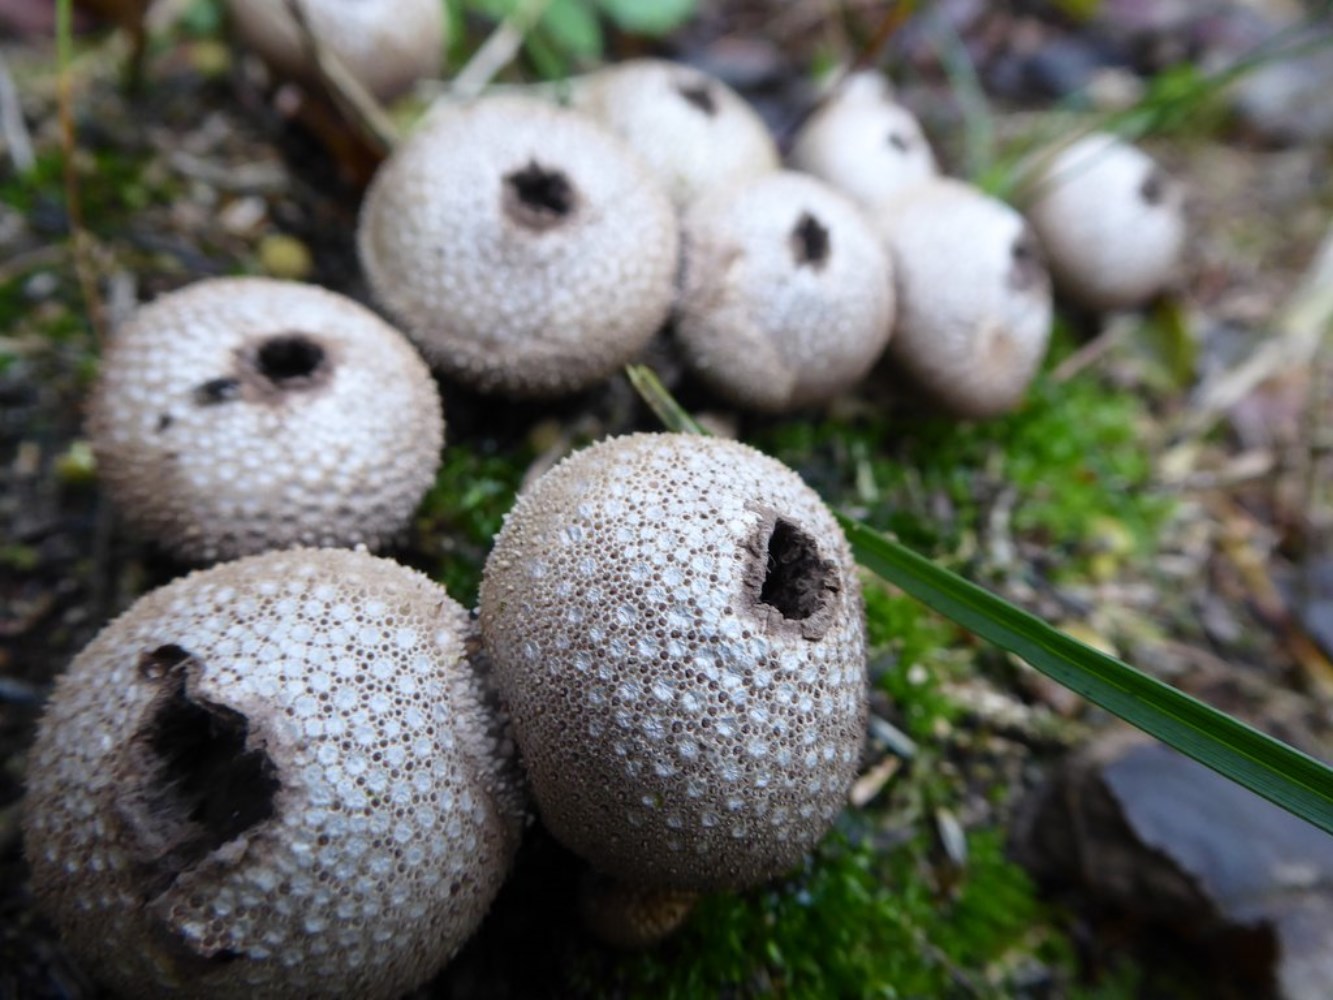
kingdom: Fungi
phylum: Basidiomycota
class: Agaricomycetes
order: Agaricales
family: Lycoperdaceae
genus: Lycoperdon
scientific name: Lycoperdon perlatum
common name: krystal-støvbold
